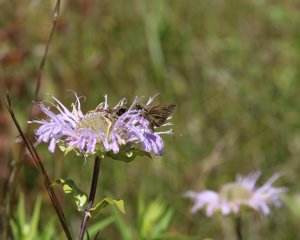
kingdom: Animalia
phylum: Arthropoda
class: Insecta
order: Lepidoptera
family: Hesperiidae
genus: Polites
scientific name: Polites egeremet
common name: Northern Broken-Dash
